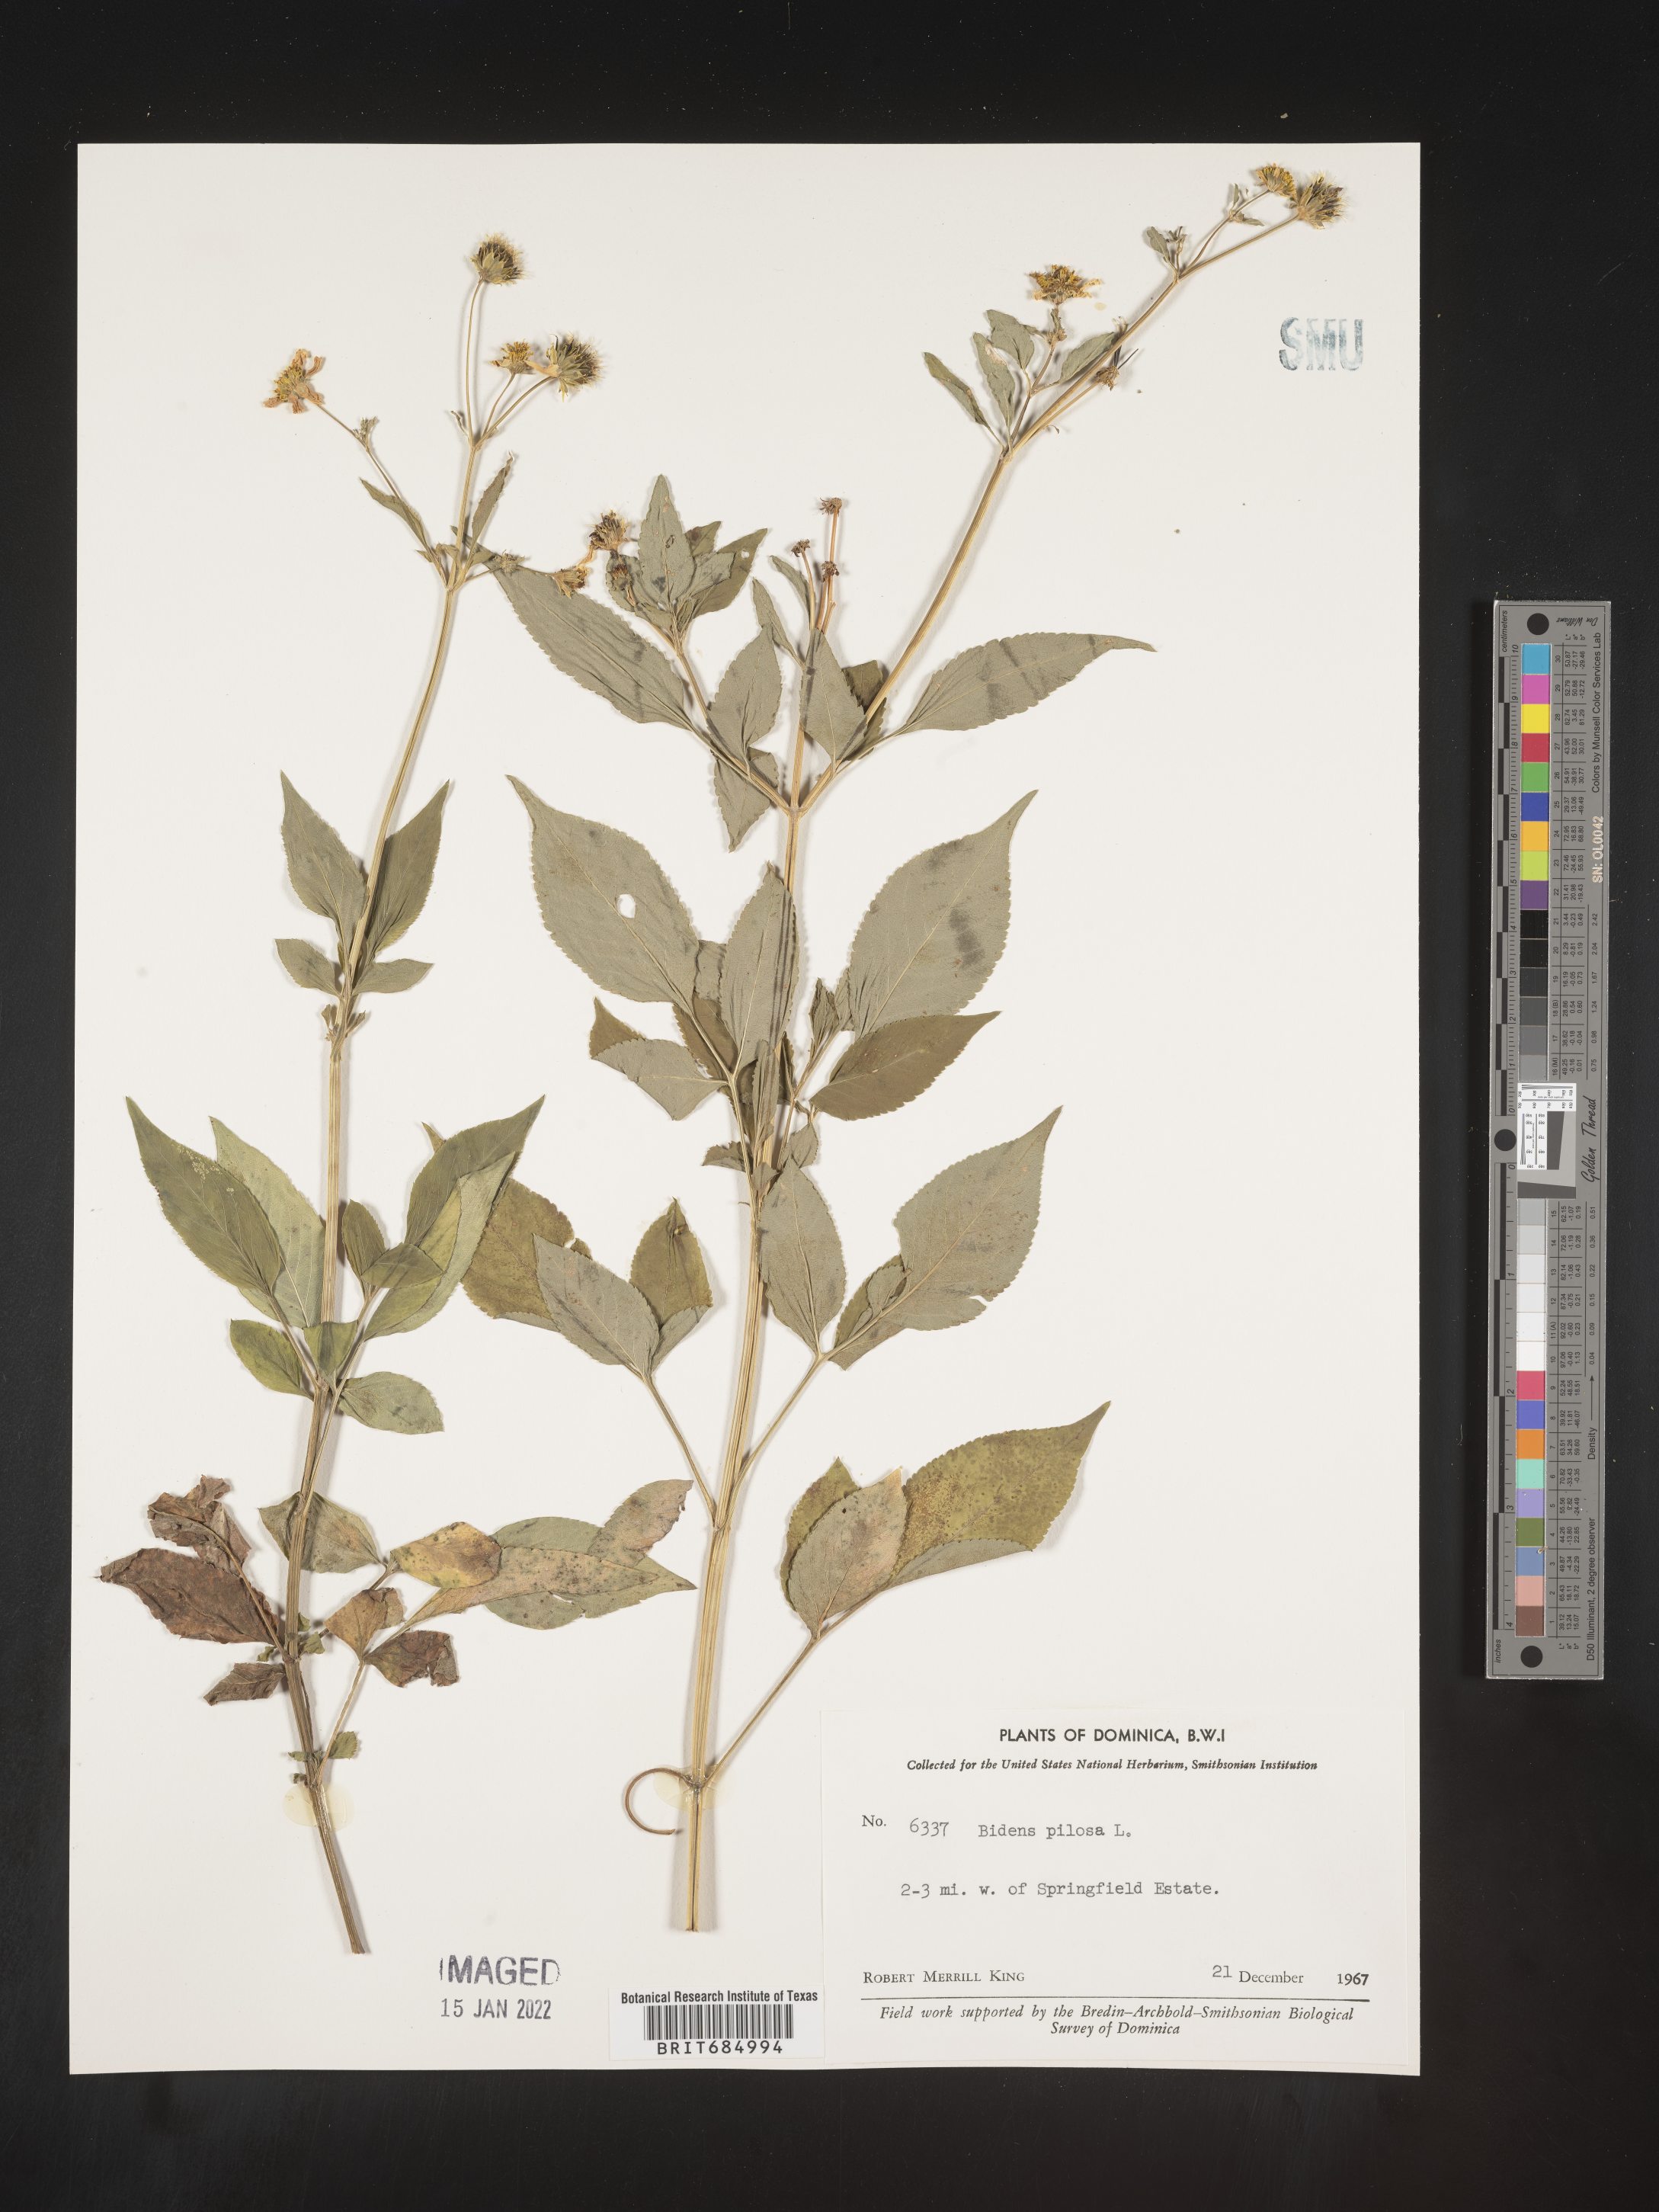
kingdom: Plantae
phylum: Tracheophyta
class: Magnoliopsida
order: Asterales
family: Asteraceae
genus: Bidens
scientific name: Bidens
